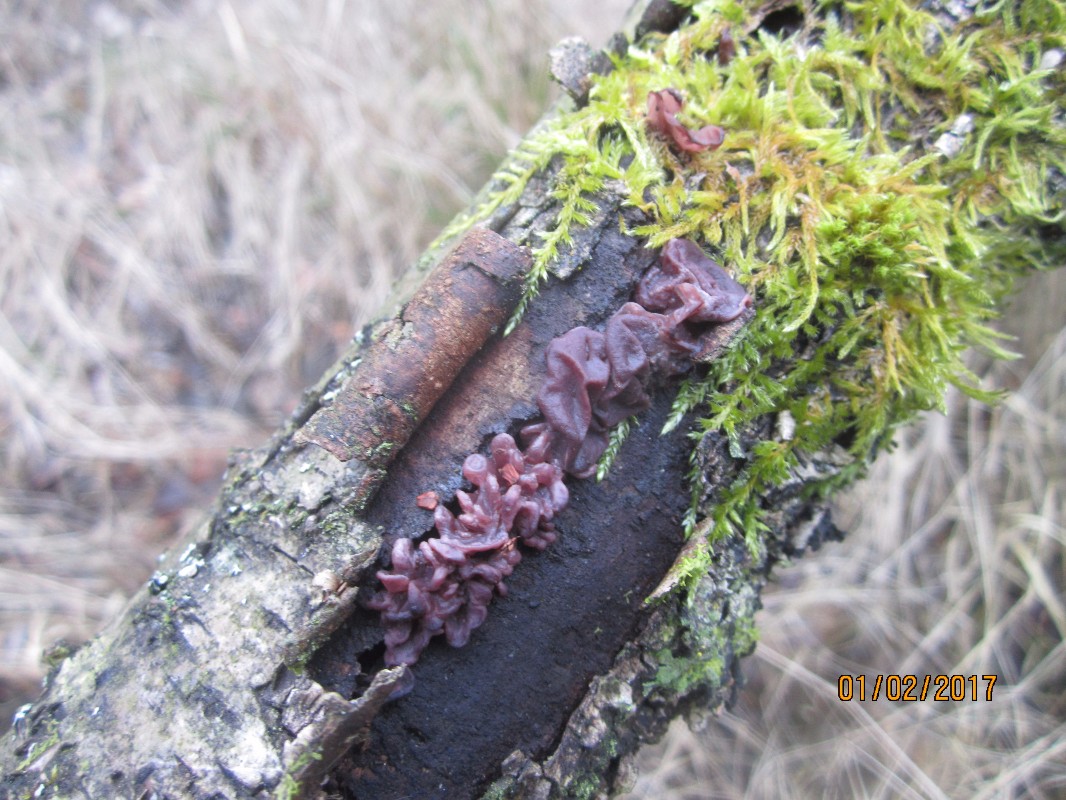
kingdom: Fungi
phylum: Ascomycota
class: Leotiomycetes
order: Helotiales
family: Gelatinodiscaceae
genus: Ascocoryne
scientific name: Ascocoryne sarcoides
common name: rødlilla sejskive
